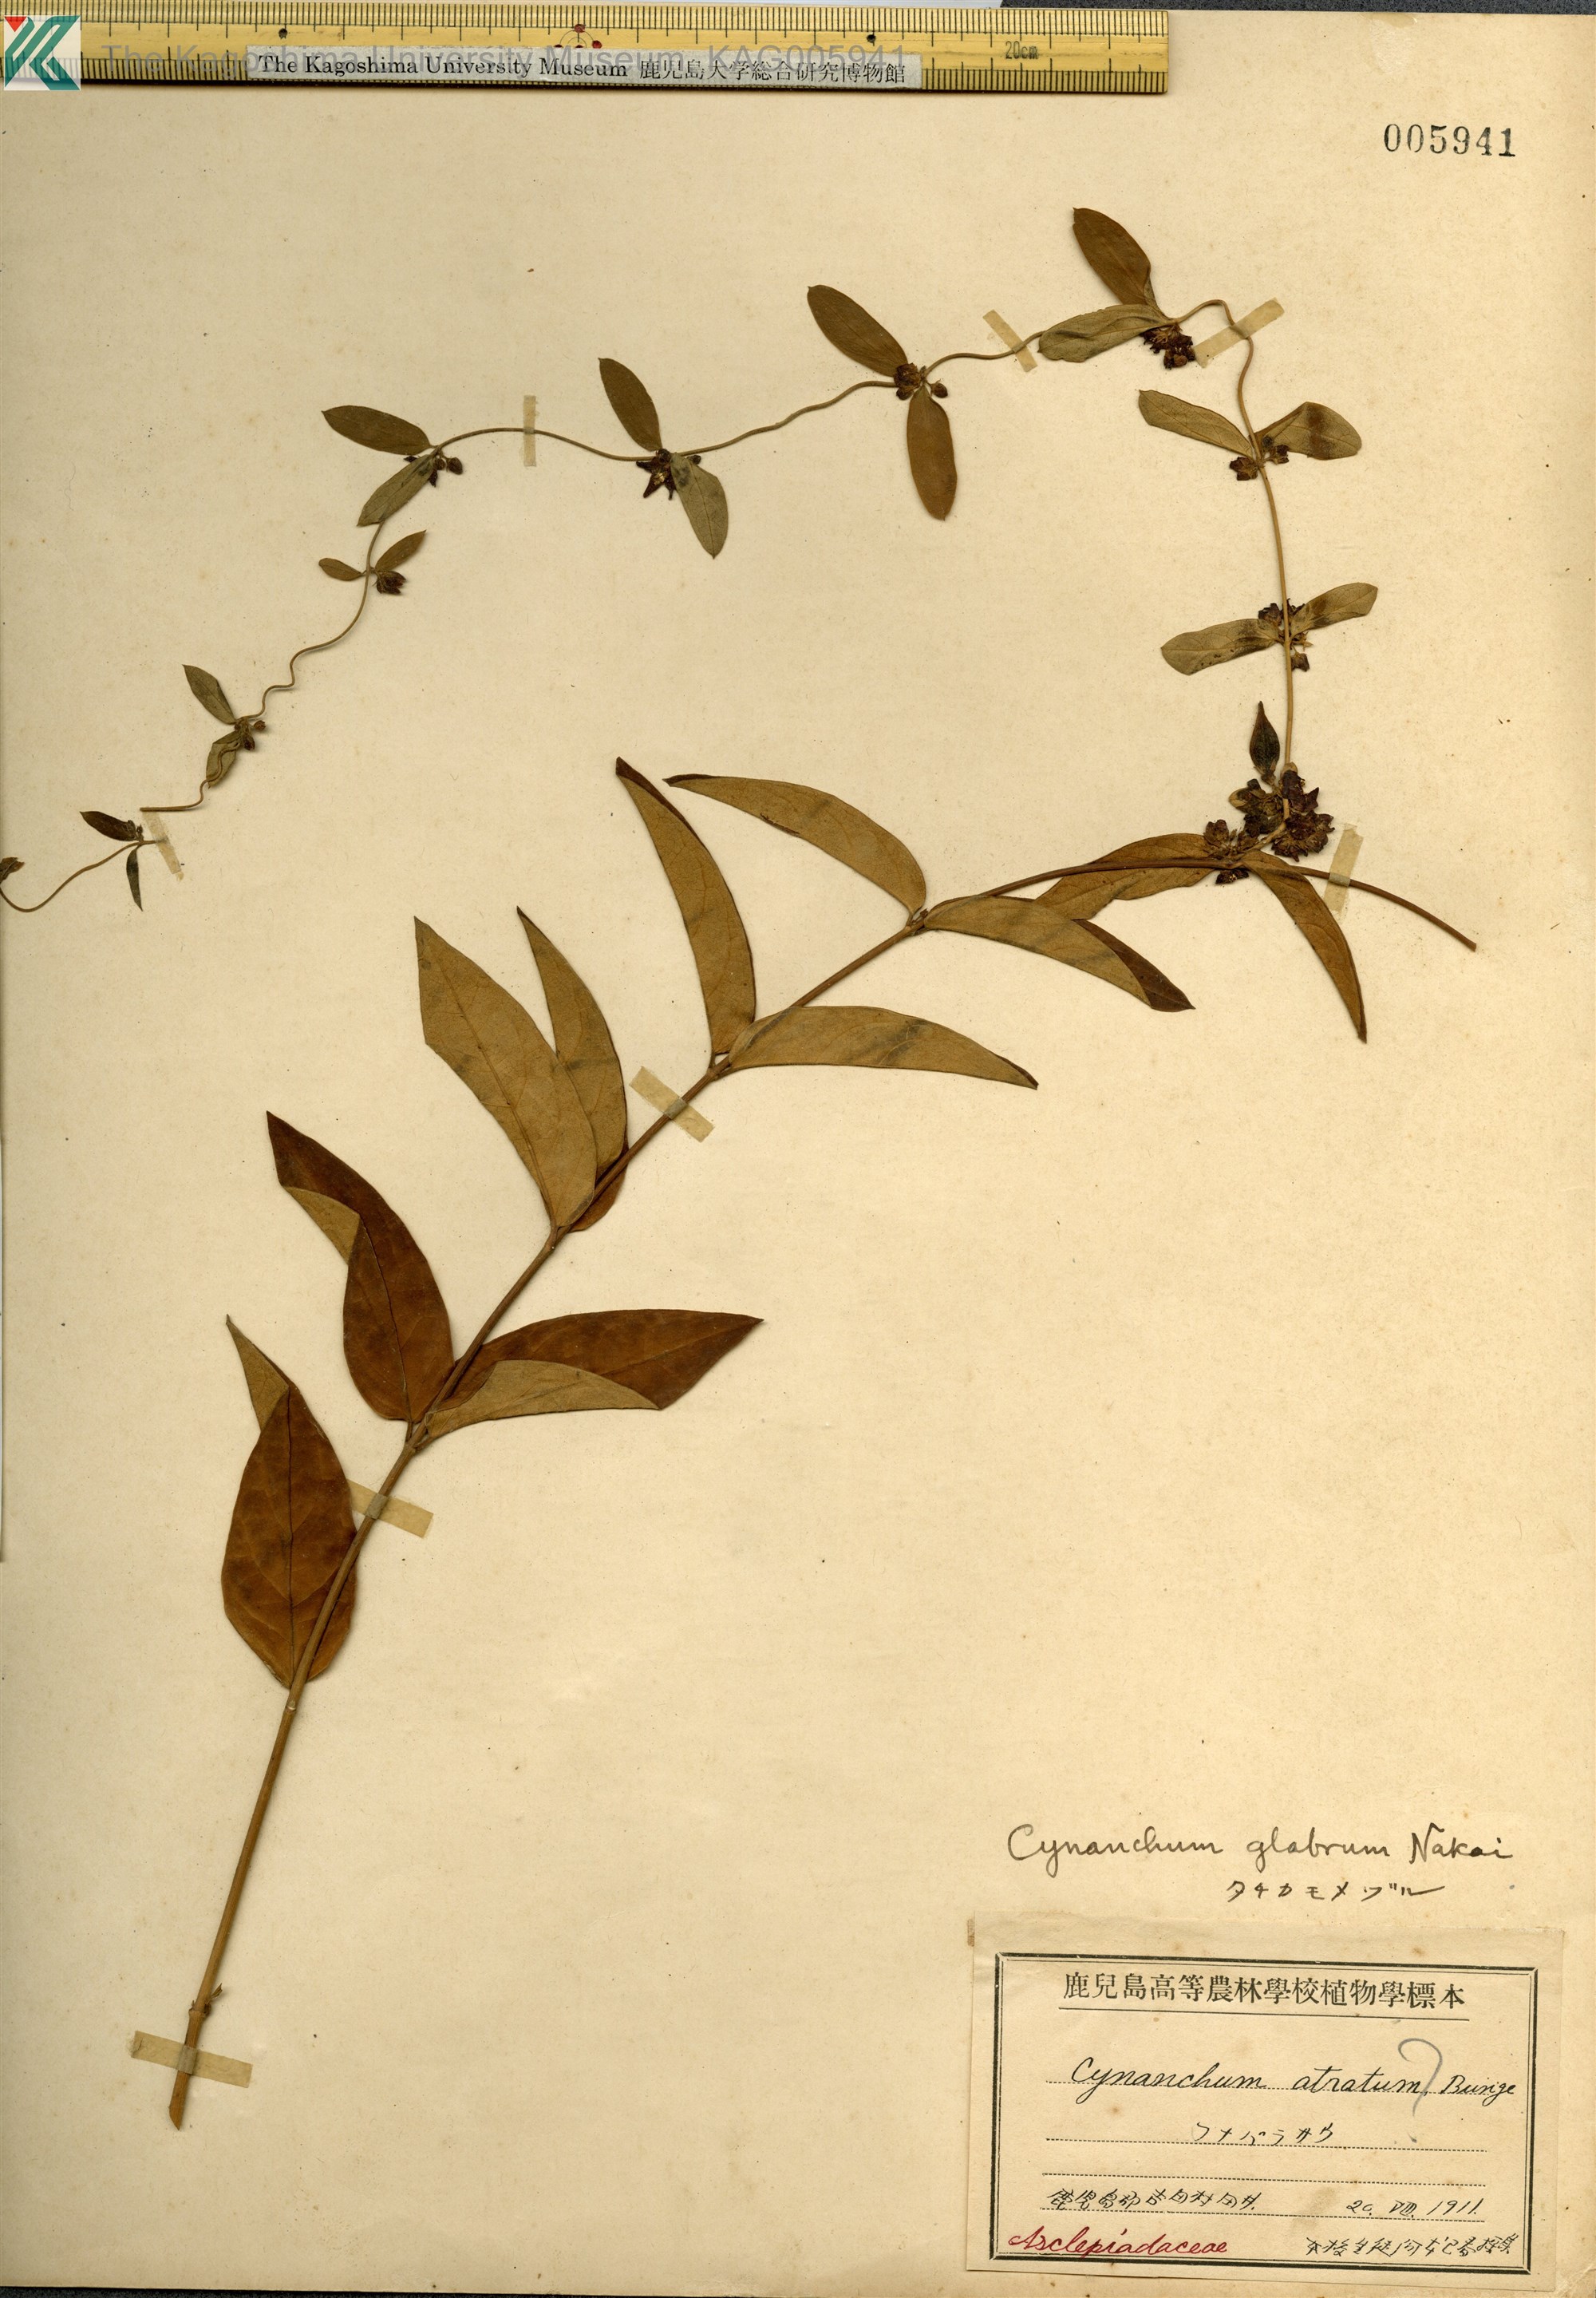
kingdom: Plantae
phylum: Tracheophyta
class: Magnoliopsida
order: Gentianales
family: Apocynaceae
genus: Vincetoxicum
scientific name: Vincetoxicum nipponicum
